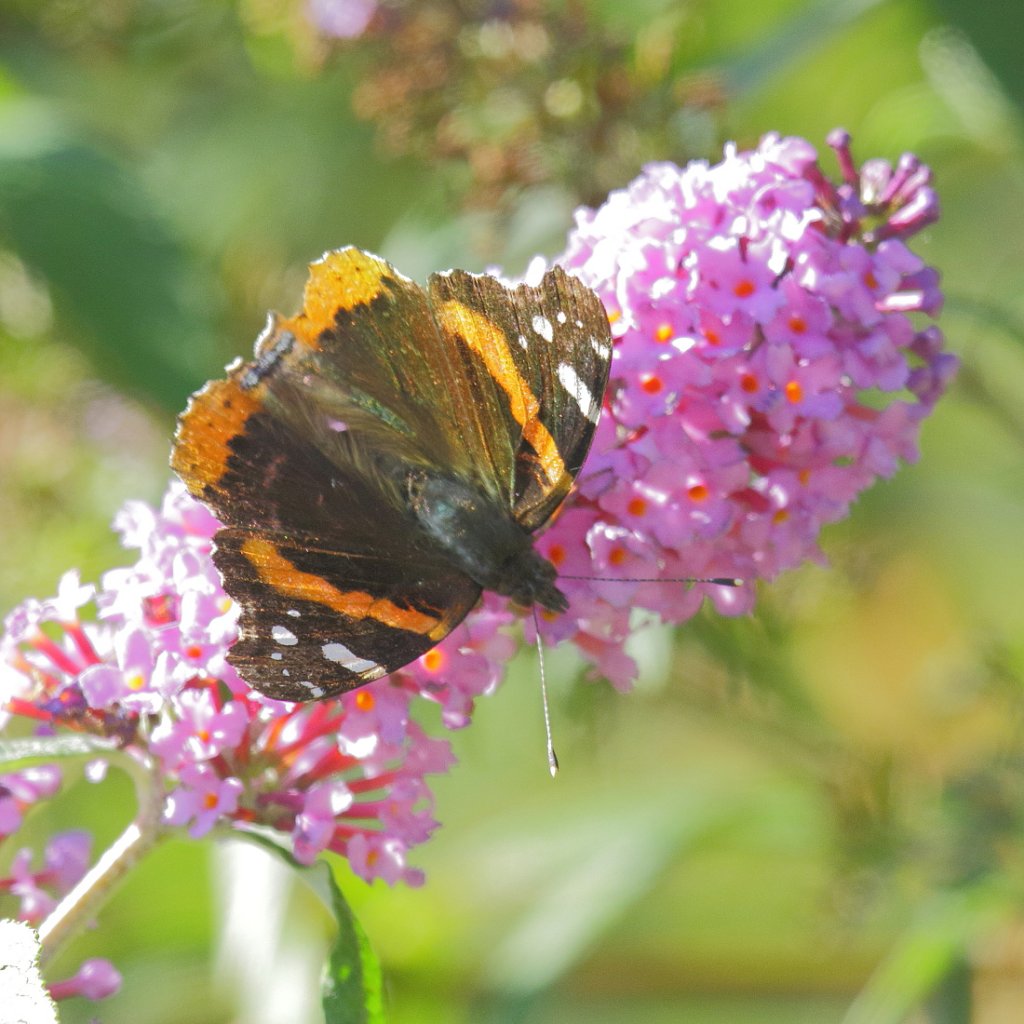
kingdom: Animalia
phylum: Arthropoda
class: Insecta
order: Lepidoptera
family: Nymphalidae
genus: Vanessa
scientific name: Vanessa atalanta
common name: Red Admiral
